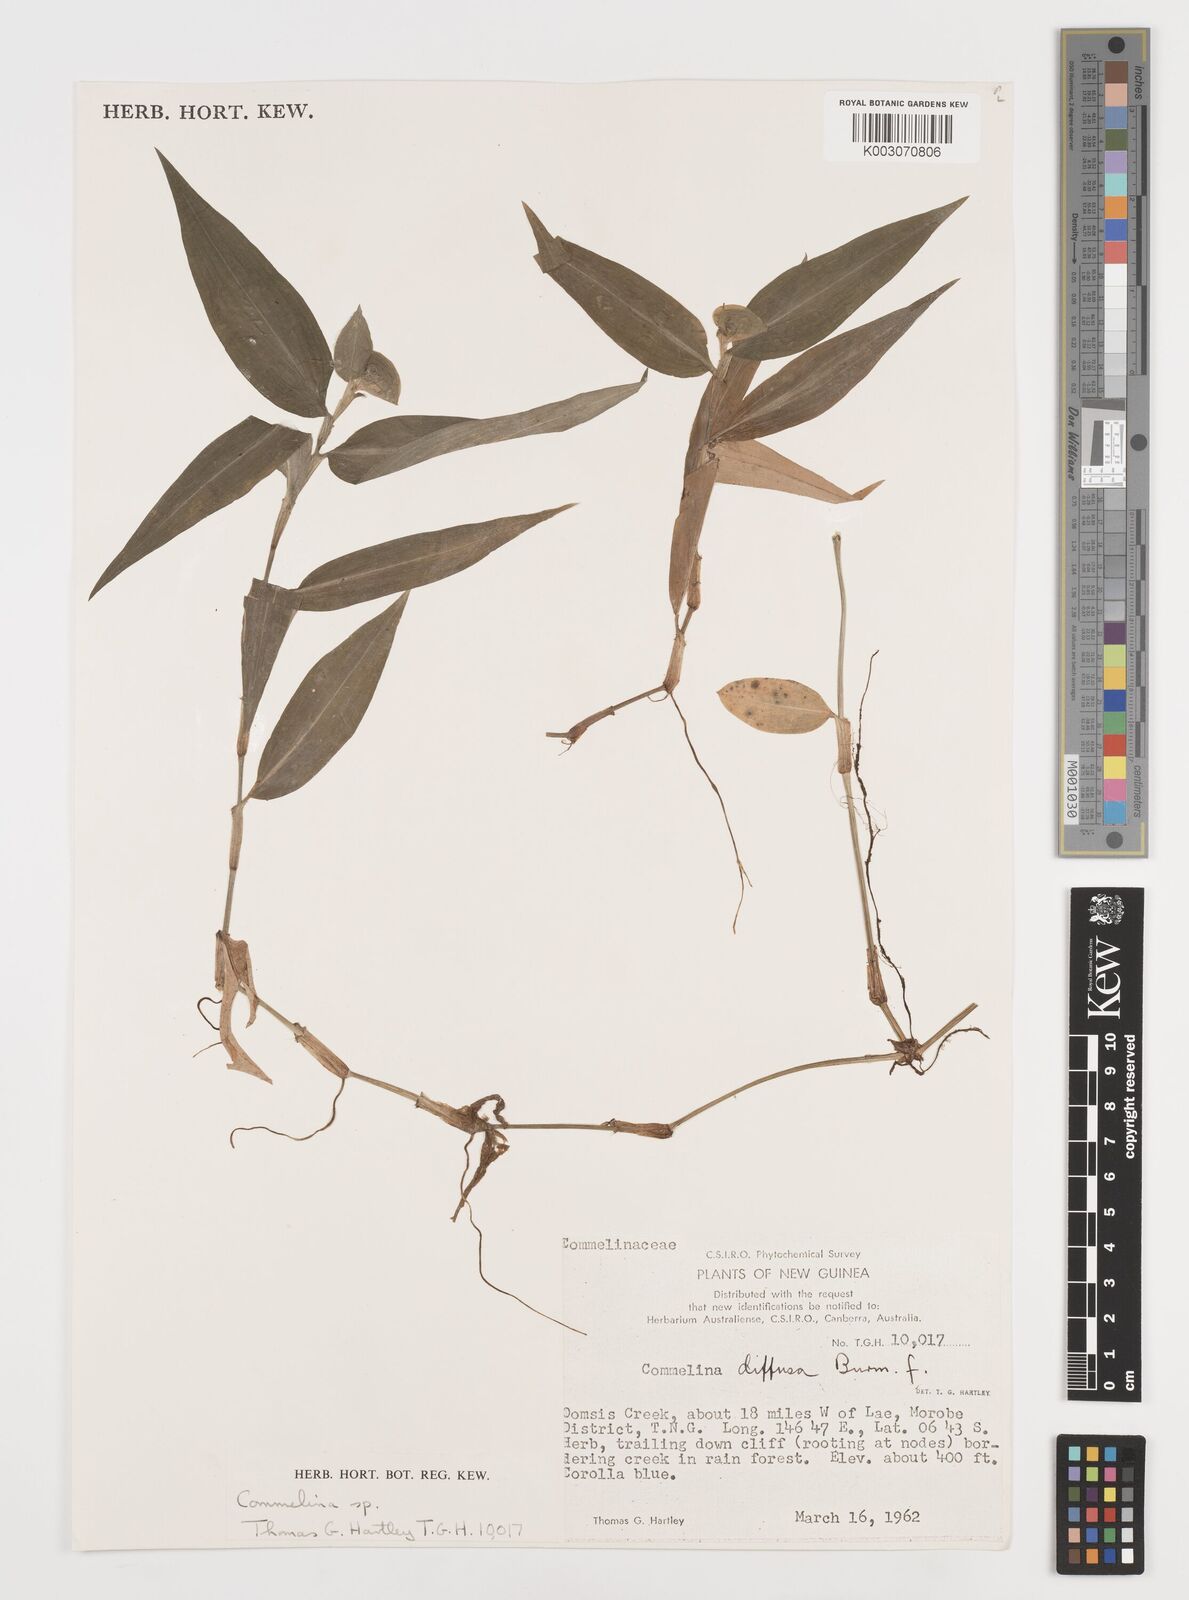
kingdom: Plantae
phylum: Tracheophyta
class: Liliopsida
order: Commelinales
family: Commelinaceae
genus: Commelina
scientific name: Commelina
